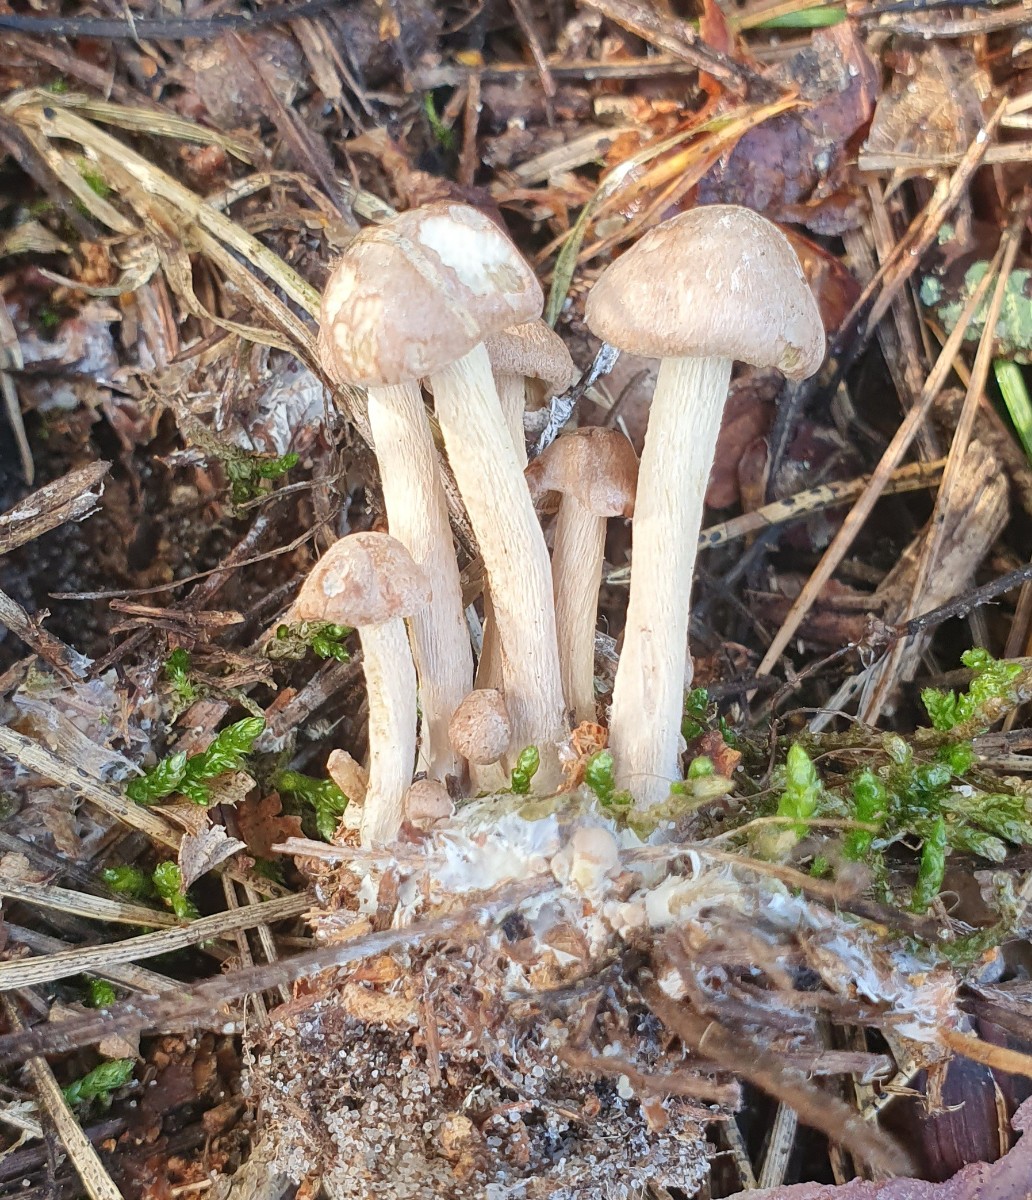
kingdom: Fungi
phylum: Basidiomycota
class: Agaricomycetes
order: Agaricales
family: Omphalotaceae
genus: Collybiopsis
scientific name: Collybiopsis confluens
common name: knippe-fladhat
